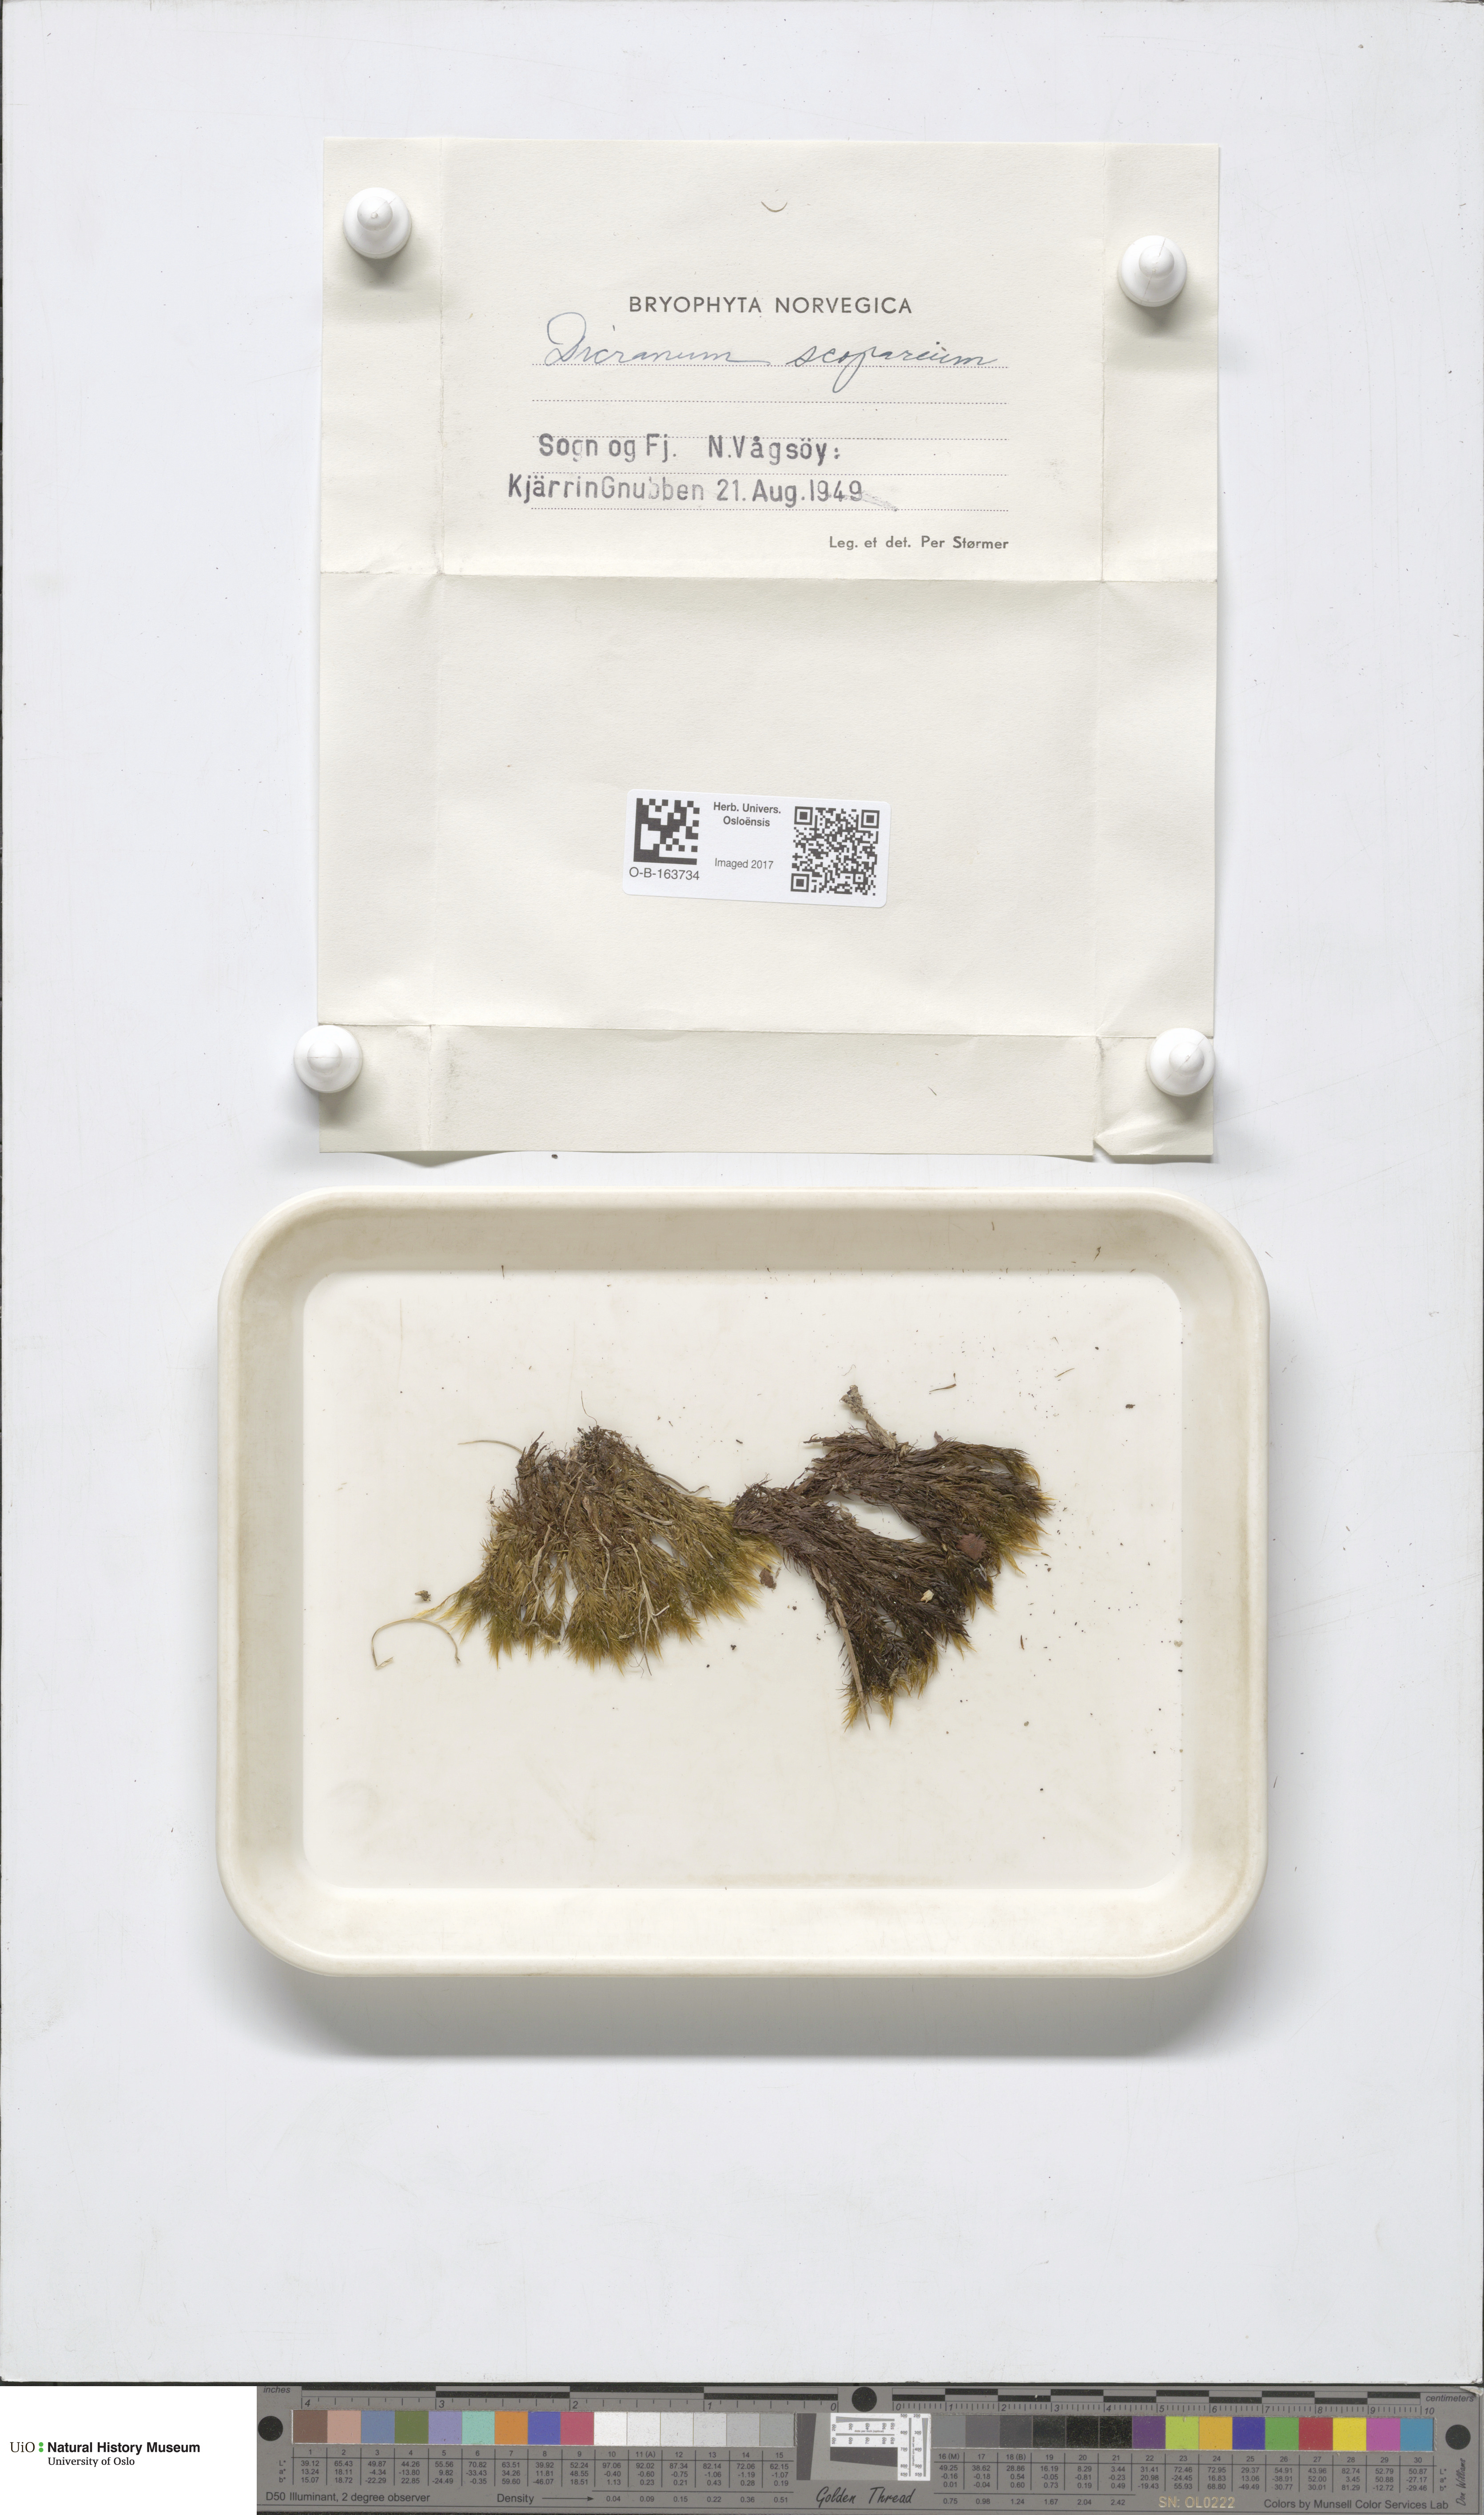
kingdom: Plantae
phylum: Bryophyta
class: Bryopsida
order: Dicranales
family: Dicranaceae
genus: Dicranum
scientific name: Dicranum scoparium
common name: Broom fork-moss
